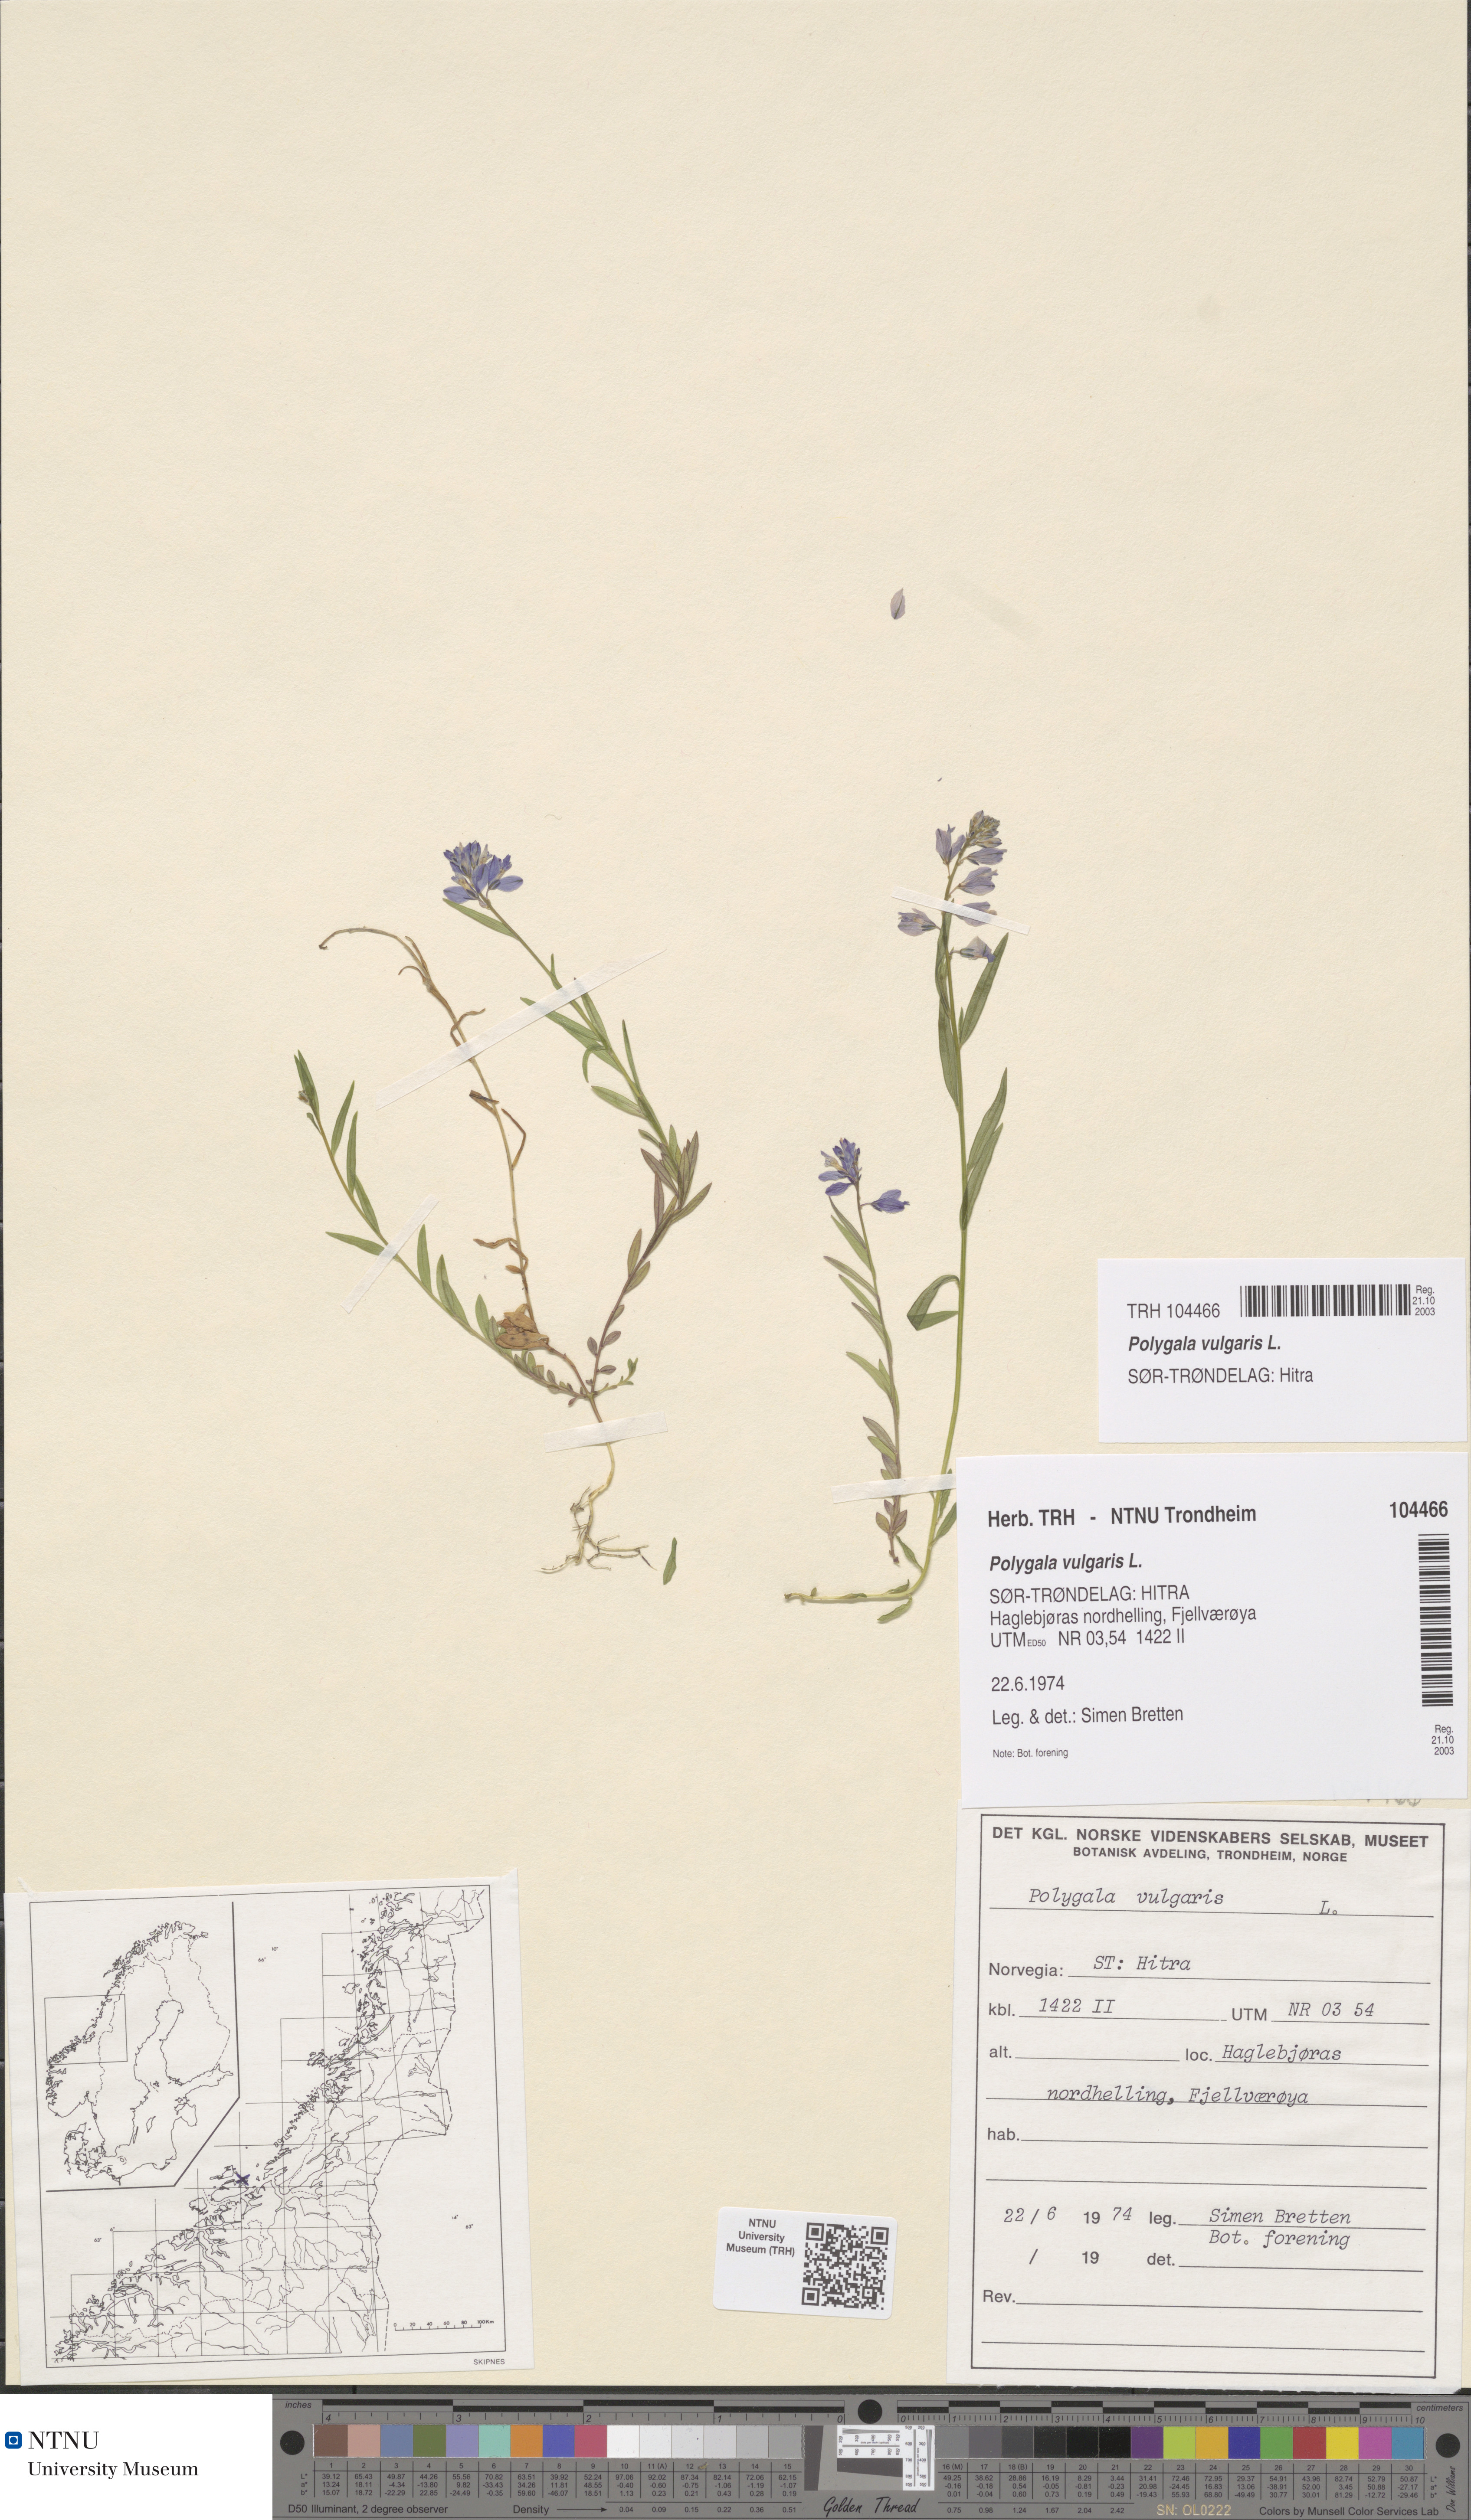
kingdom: Plantae
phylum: Tracheophyta
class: Magnoliopsida
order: Fabales
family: Polygalaceae
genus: Polygala
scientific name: Polygala vulgaris
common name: Common milkwort
